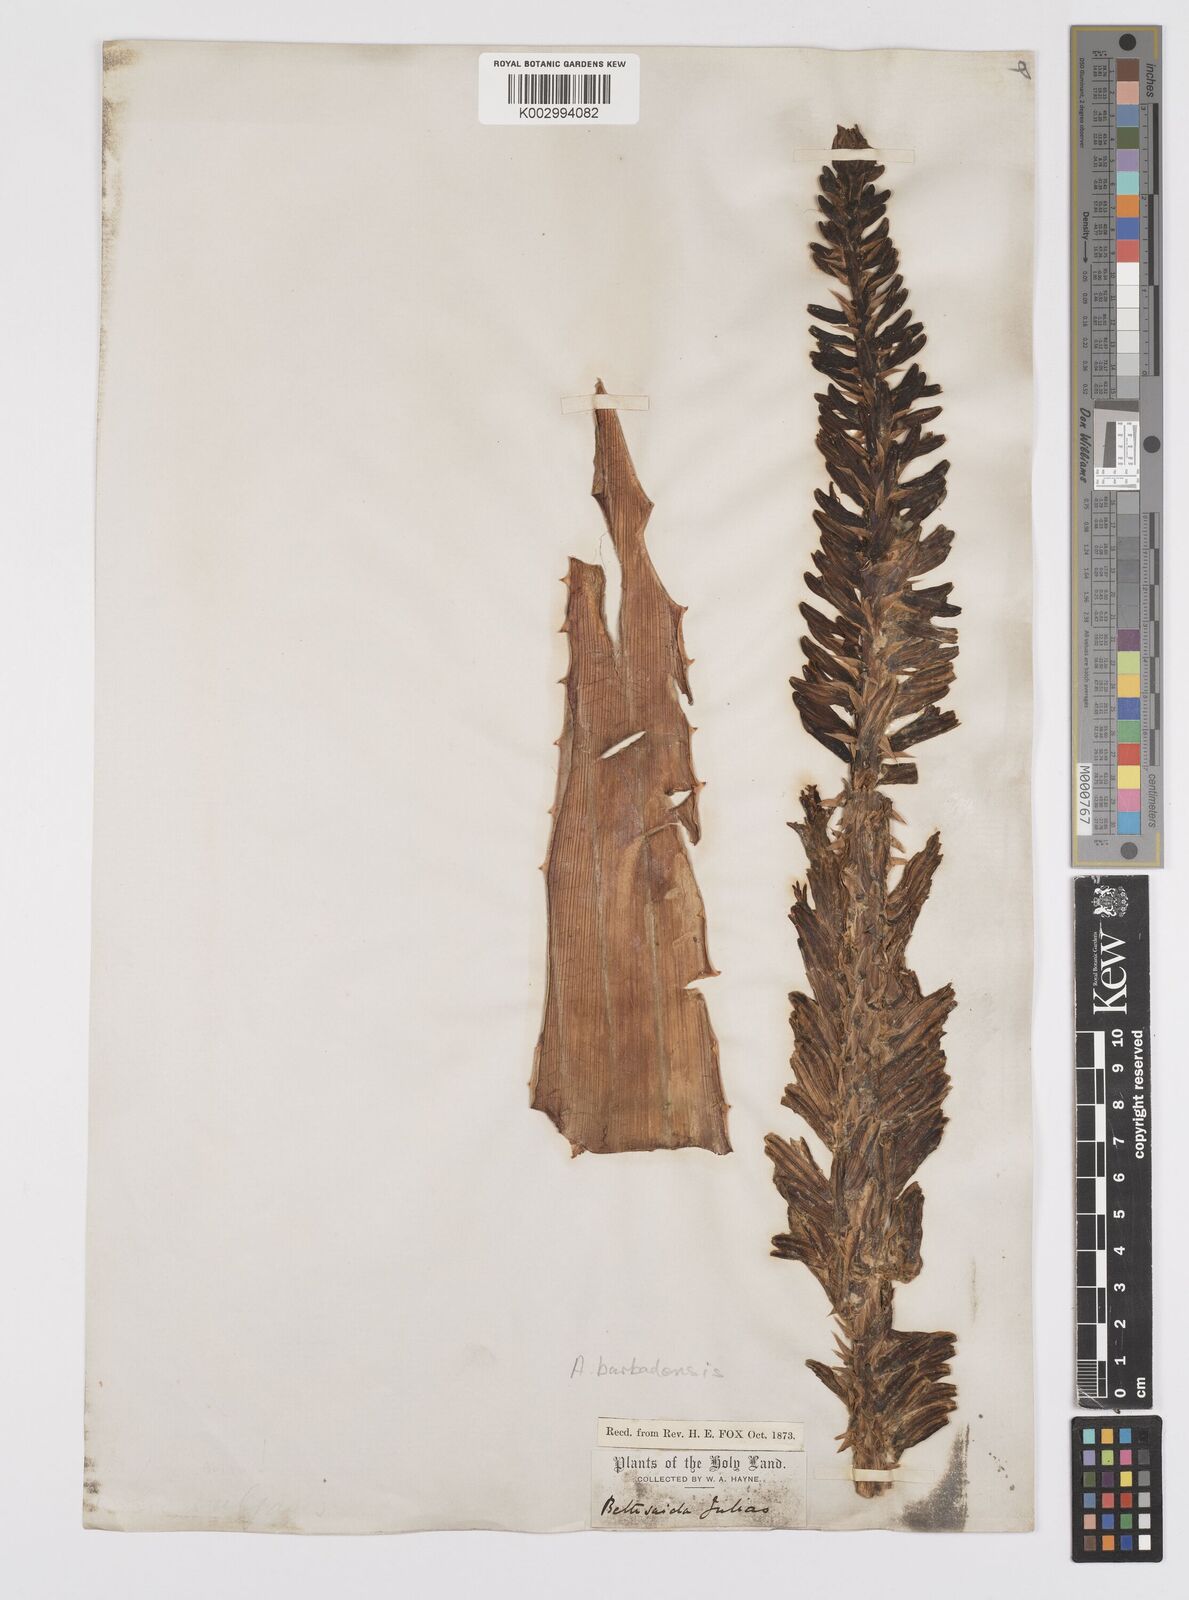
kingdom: Plantae
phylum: Tracheophyta
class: Liliopsida
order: Asparagales
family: Asphodelaceae
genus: Aloe
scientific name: Aloe vera
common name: Barbados aloe
